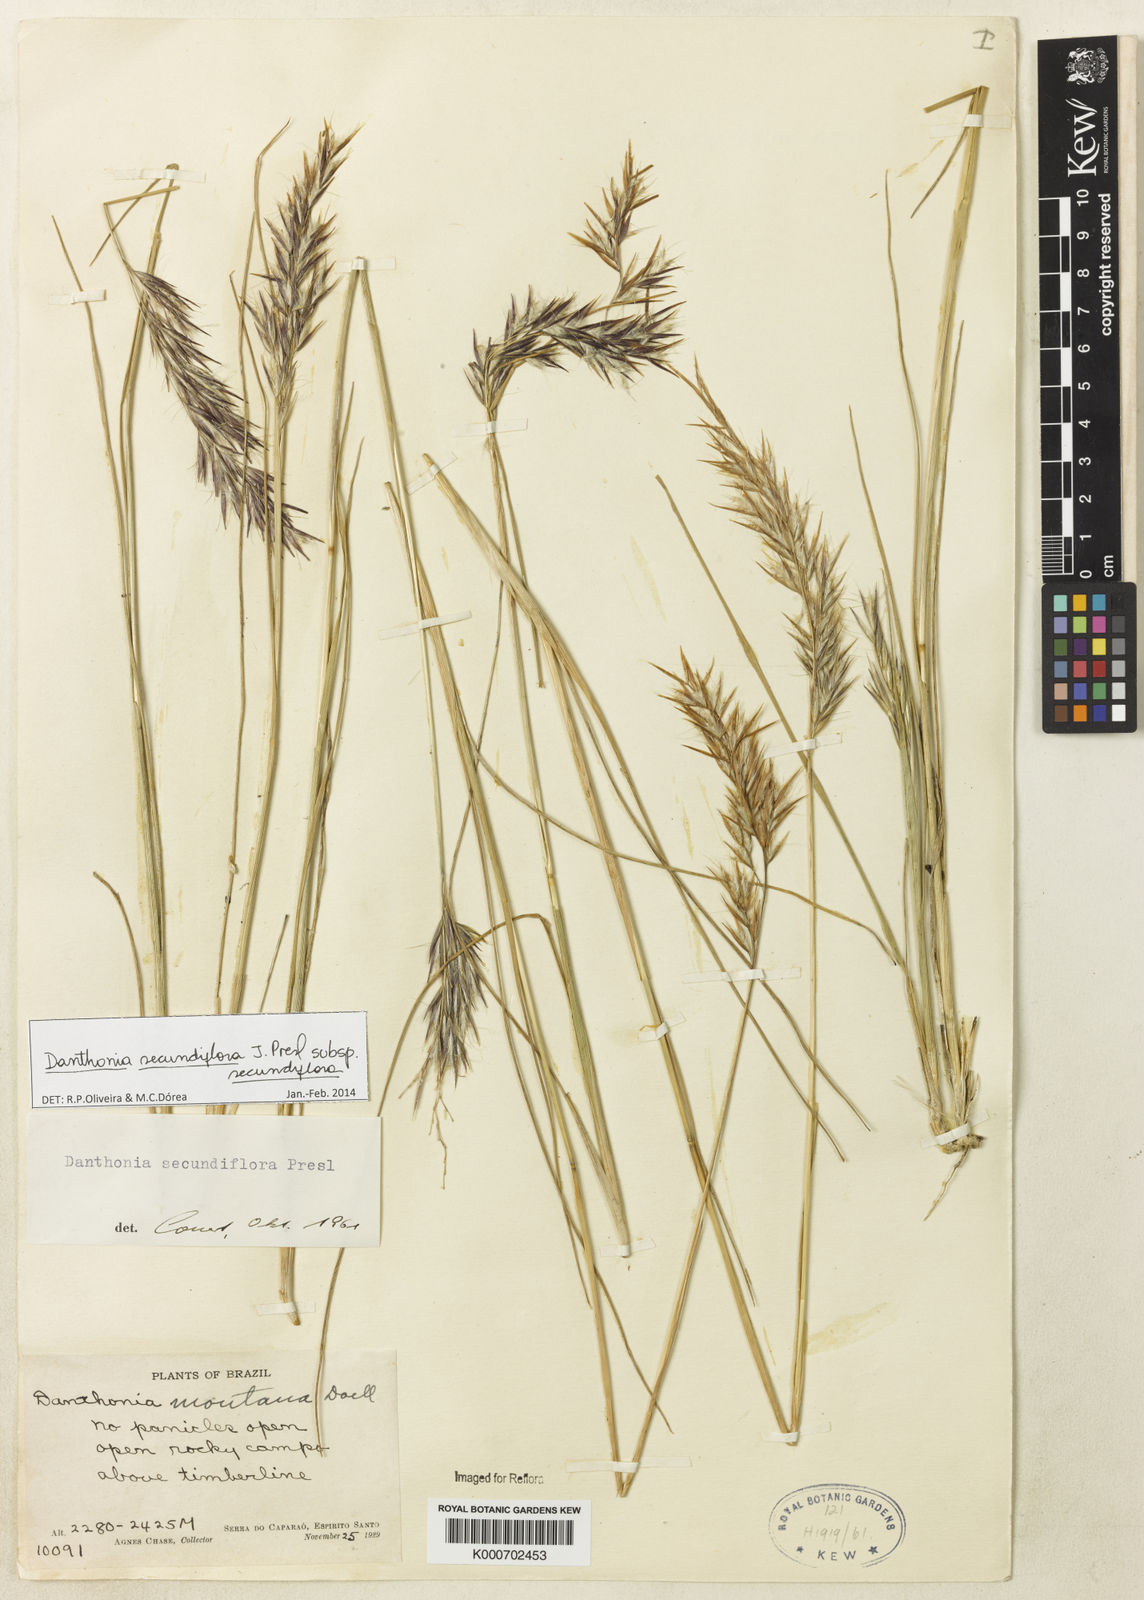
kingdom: Plantae
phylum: Tracheophyta
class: Liliopsida
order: Poales
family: Poaceae
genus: Danthonia
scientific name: Danthonia secundiflora
